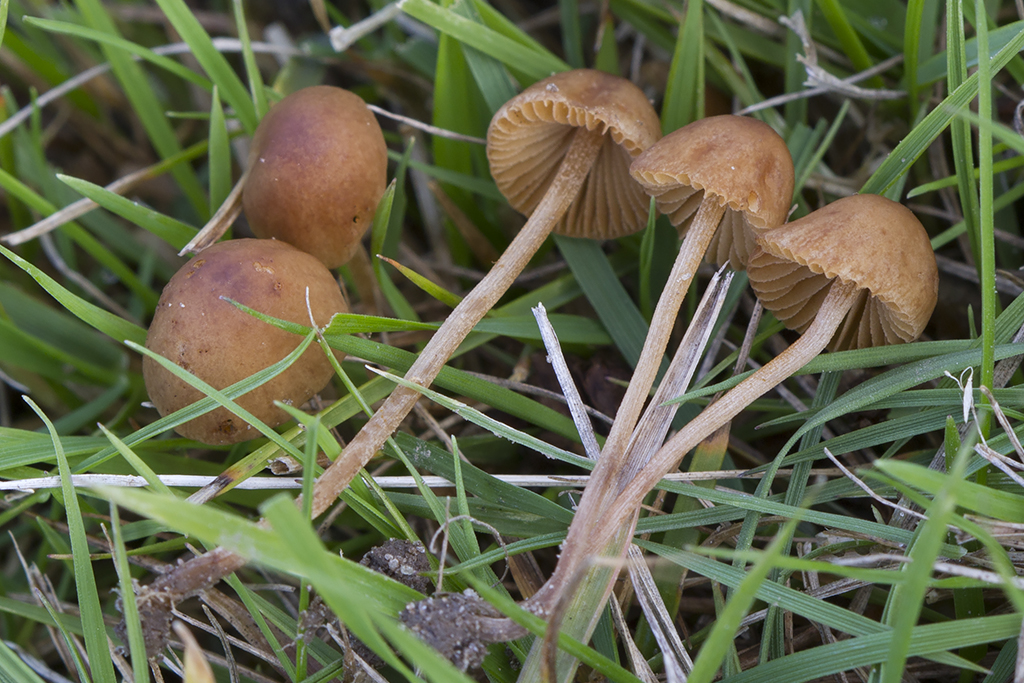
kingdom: Fungi
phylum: Basidiomycota
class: Agaricomycetes
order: Agaricales
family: Bolbitiaceae
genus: Conocybe
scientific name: Conocybe juniana
